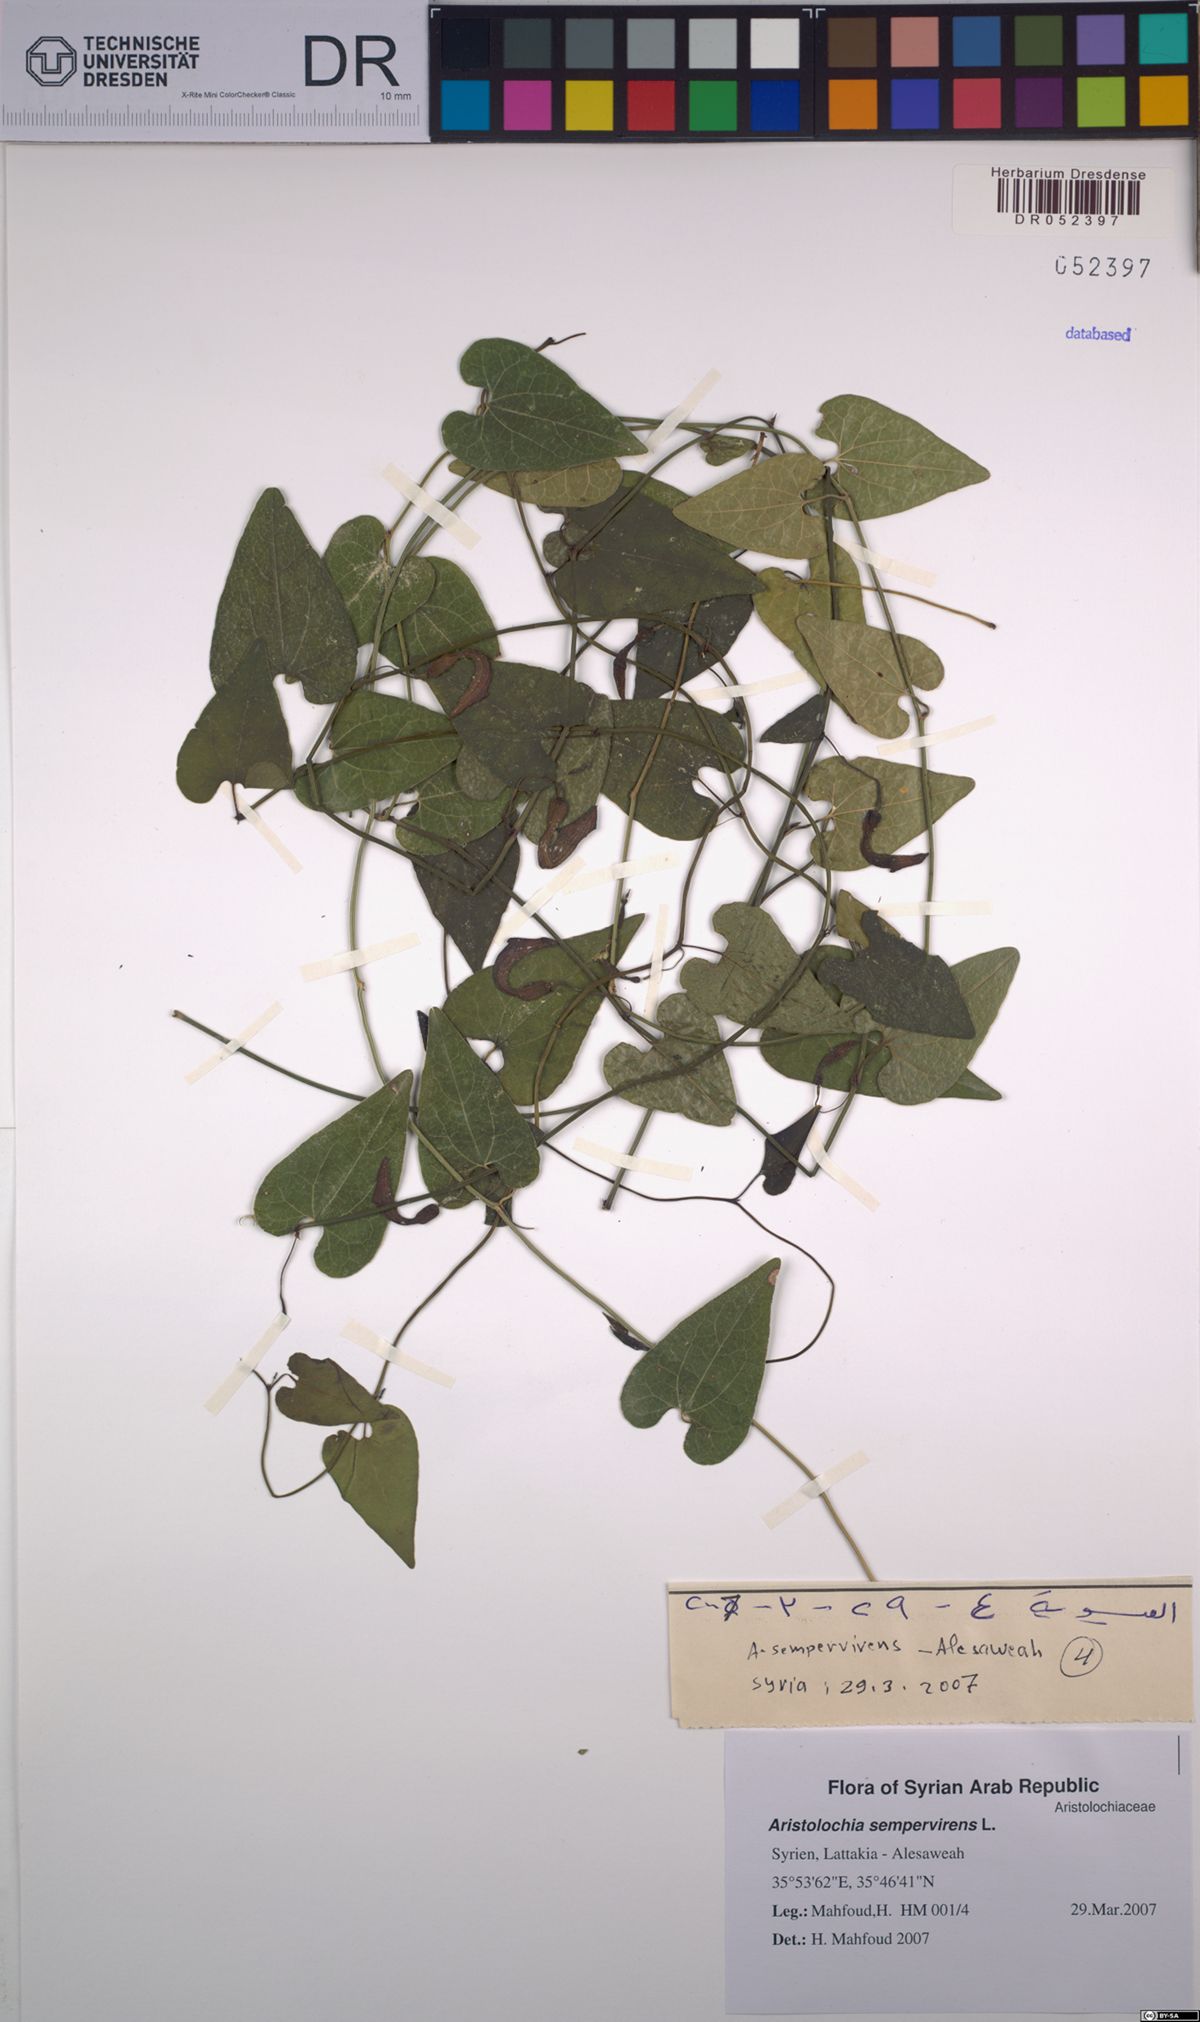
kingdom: Plantae
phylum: Tracheophyta
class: Magnoliopsida
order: Piperales
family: Aristolochiaceae
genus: Aristolochia
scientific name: Aristolochia sempervirens
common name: Long birthwort
